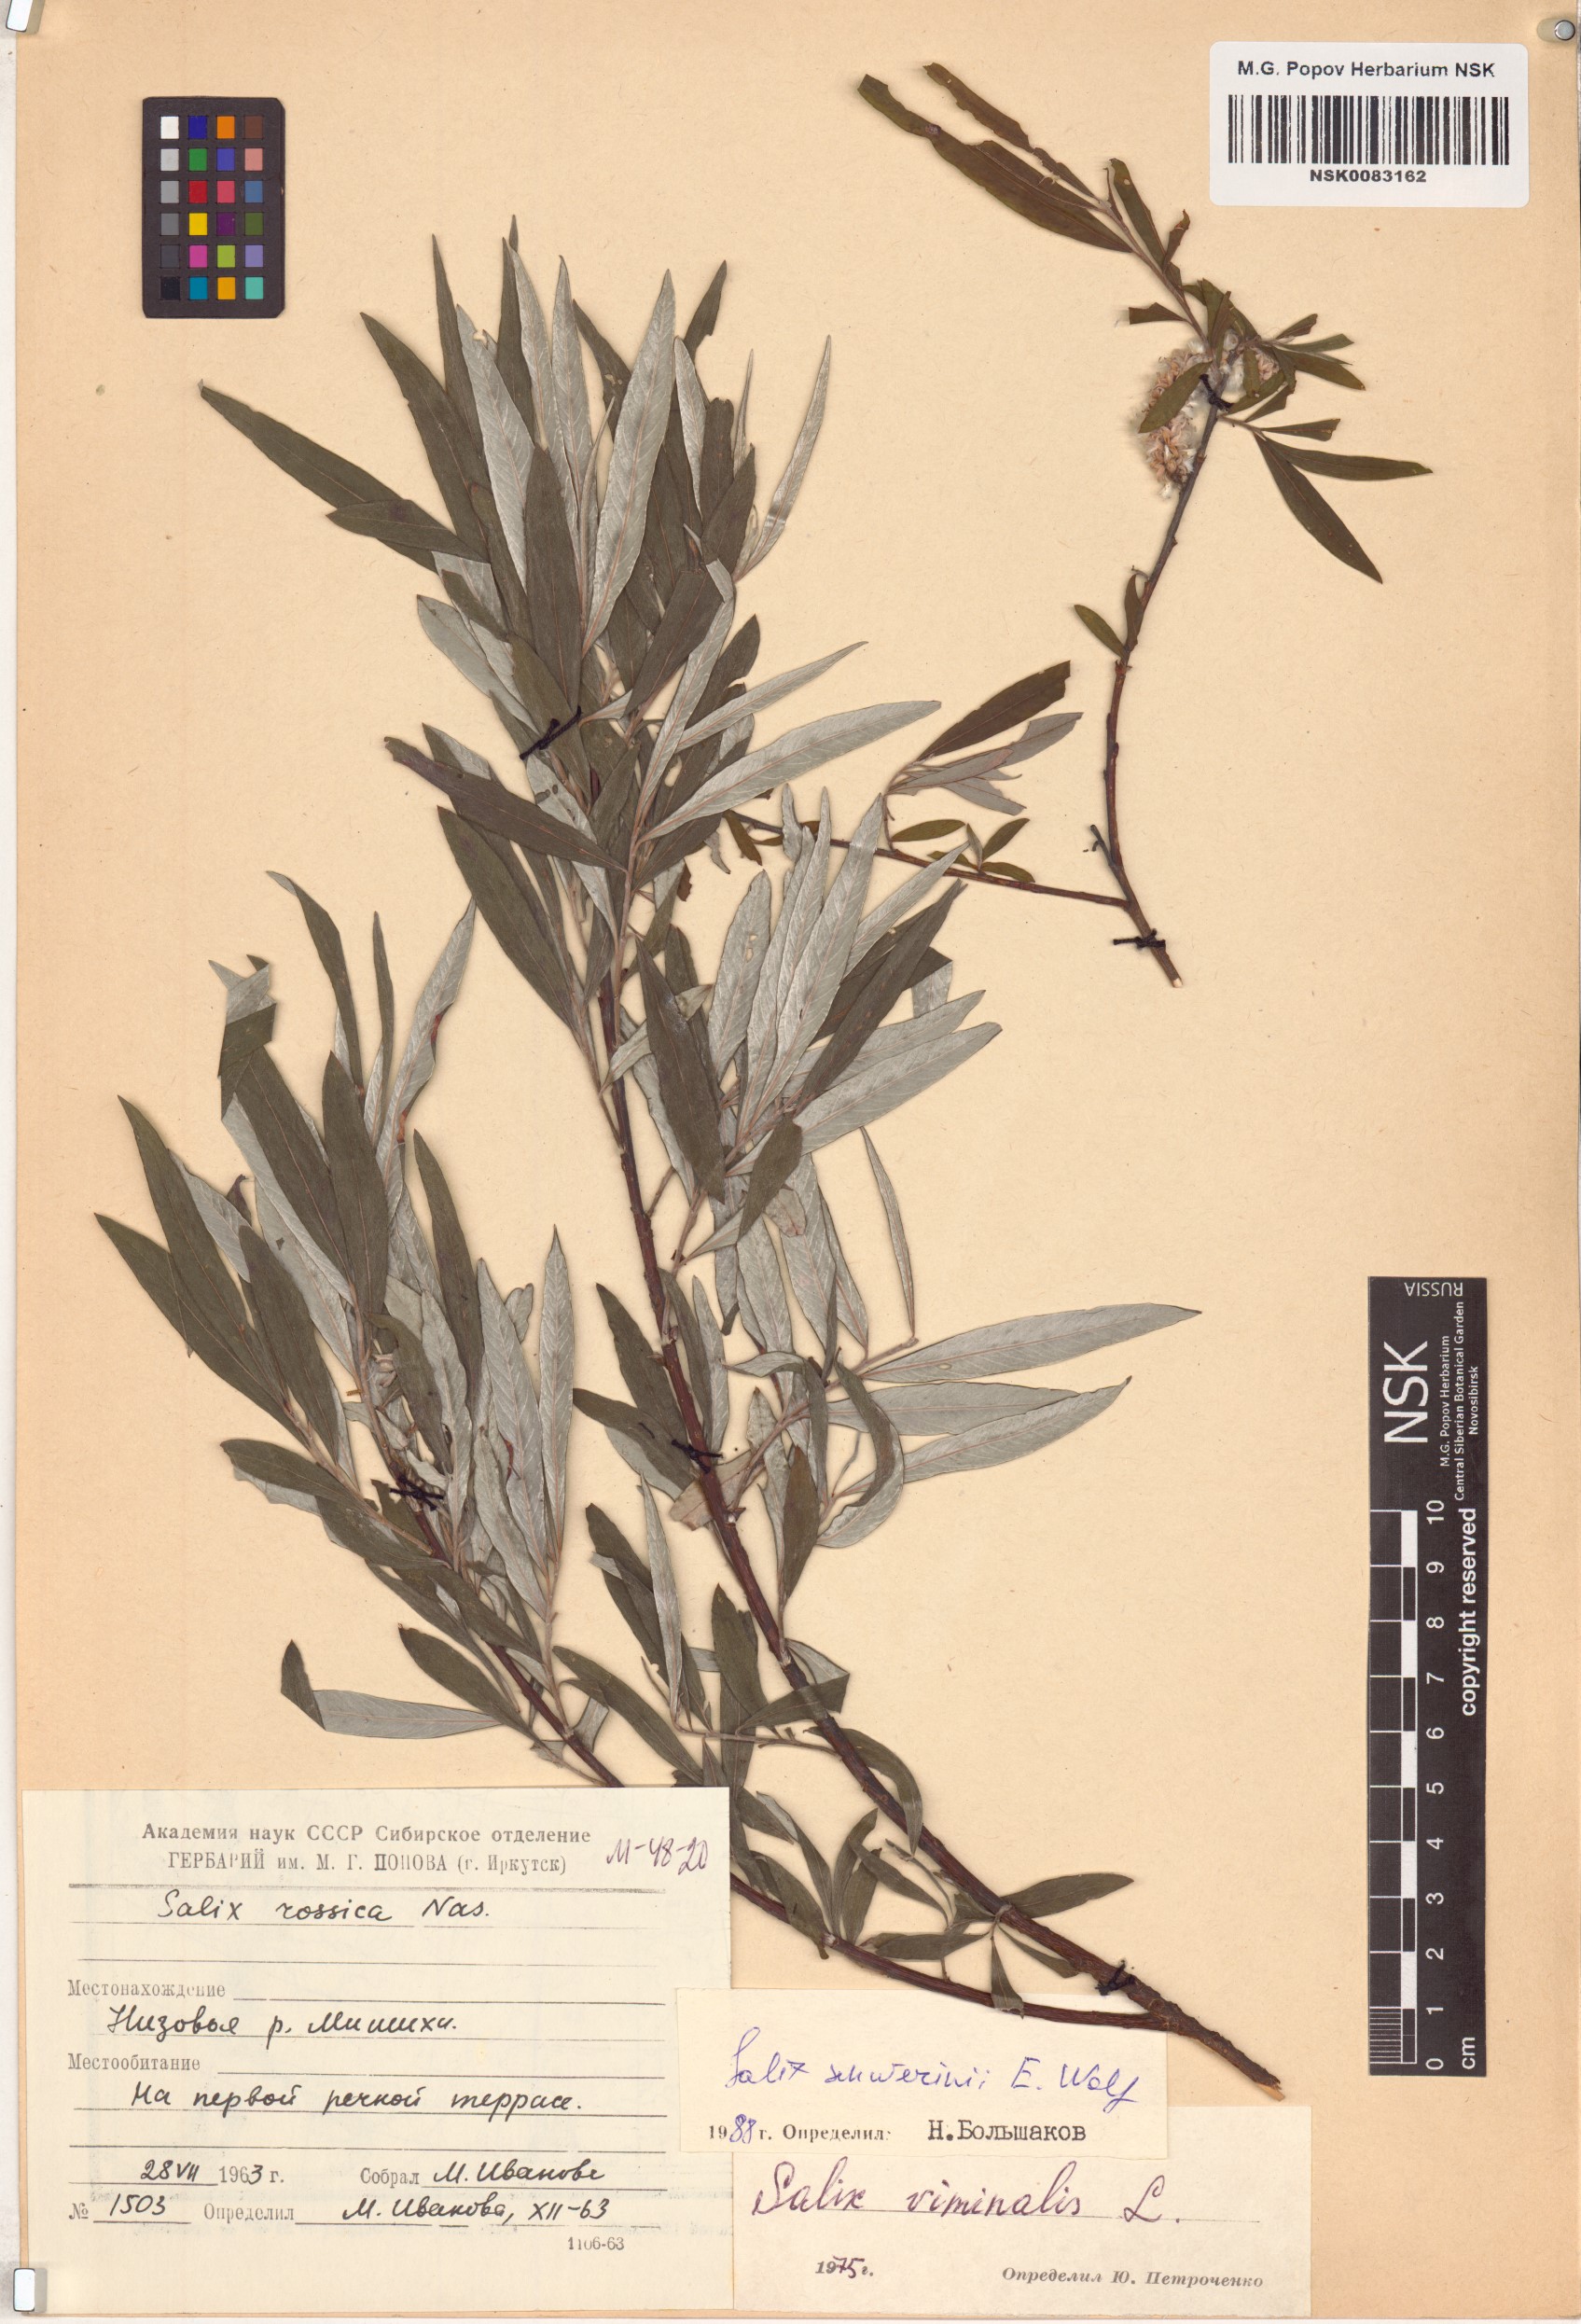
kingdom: Plantae
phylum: Tracheophyta
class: Magnoliopsida
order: Malpighiales
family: Salicaceae
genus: Salix
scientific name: Salix schwerinii
